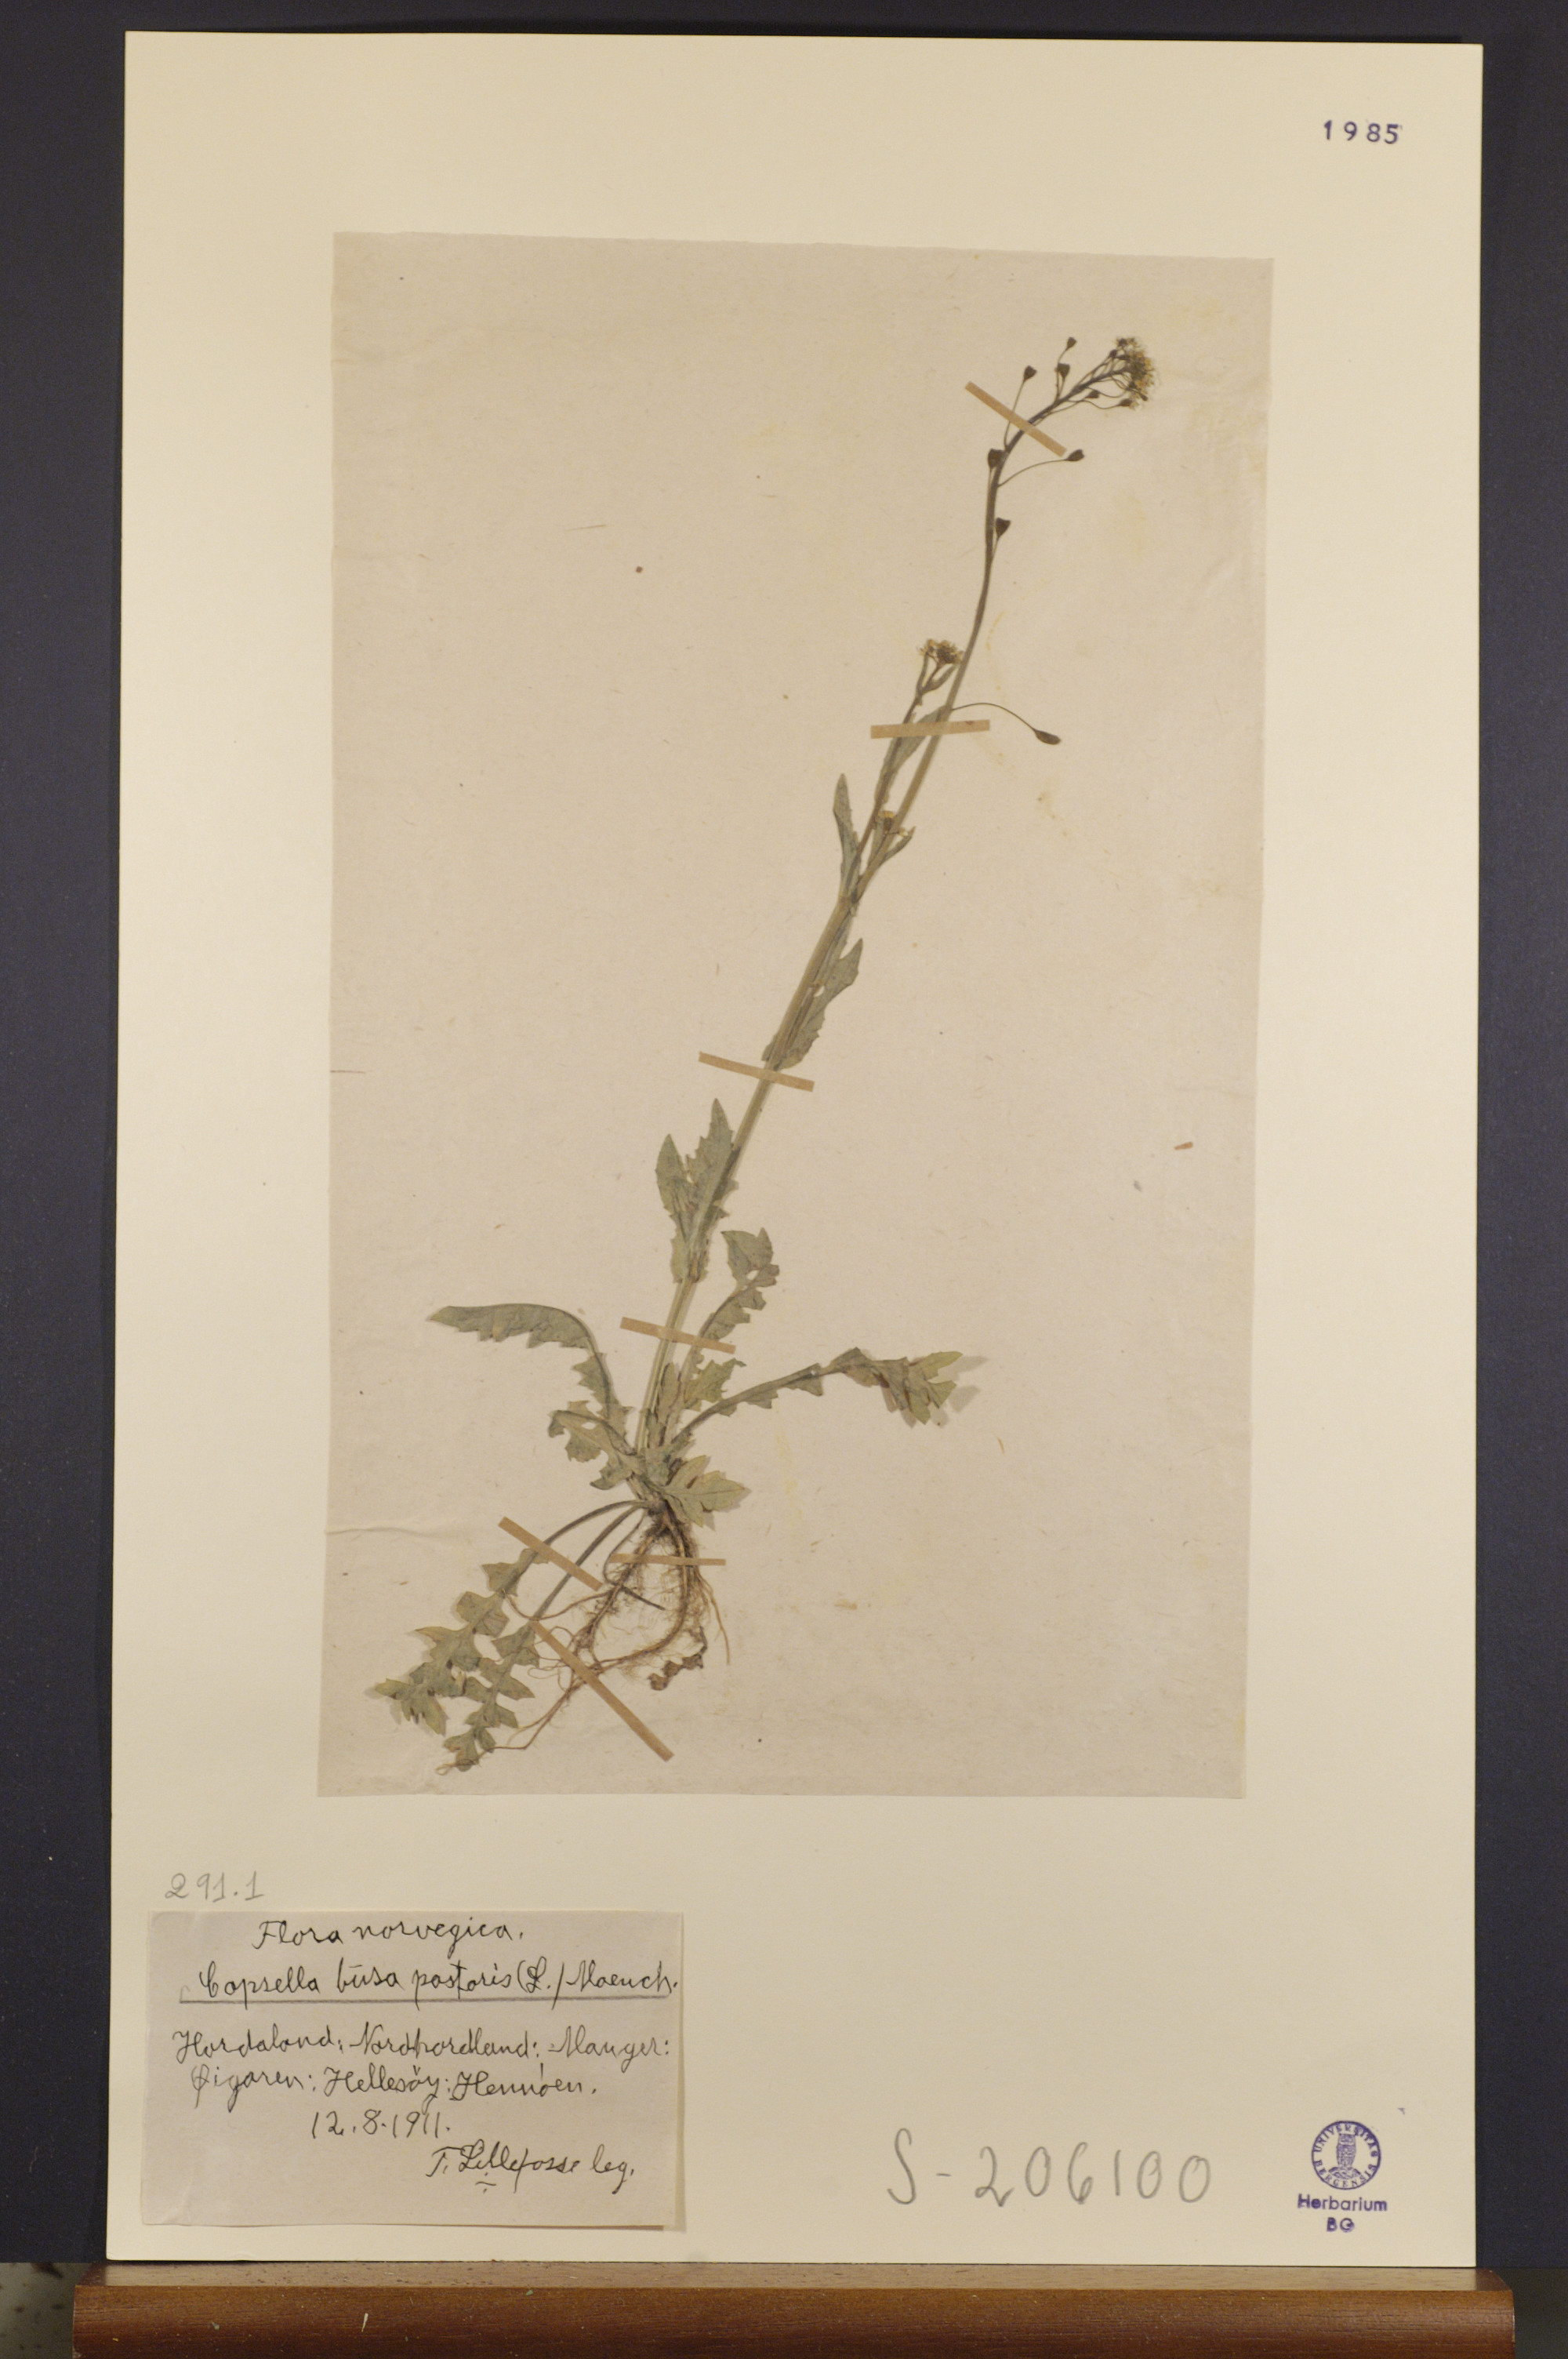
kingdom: Plantae
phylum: Tracheophyta
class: Magnoliopsida
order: Brassicales
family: Brassicaceae
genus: Capsella
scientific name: Capsella bursa-pastoris
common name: Shepherd's purse
